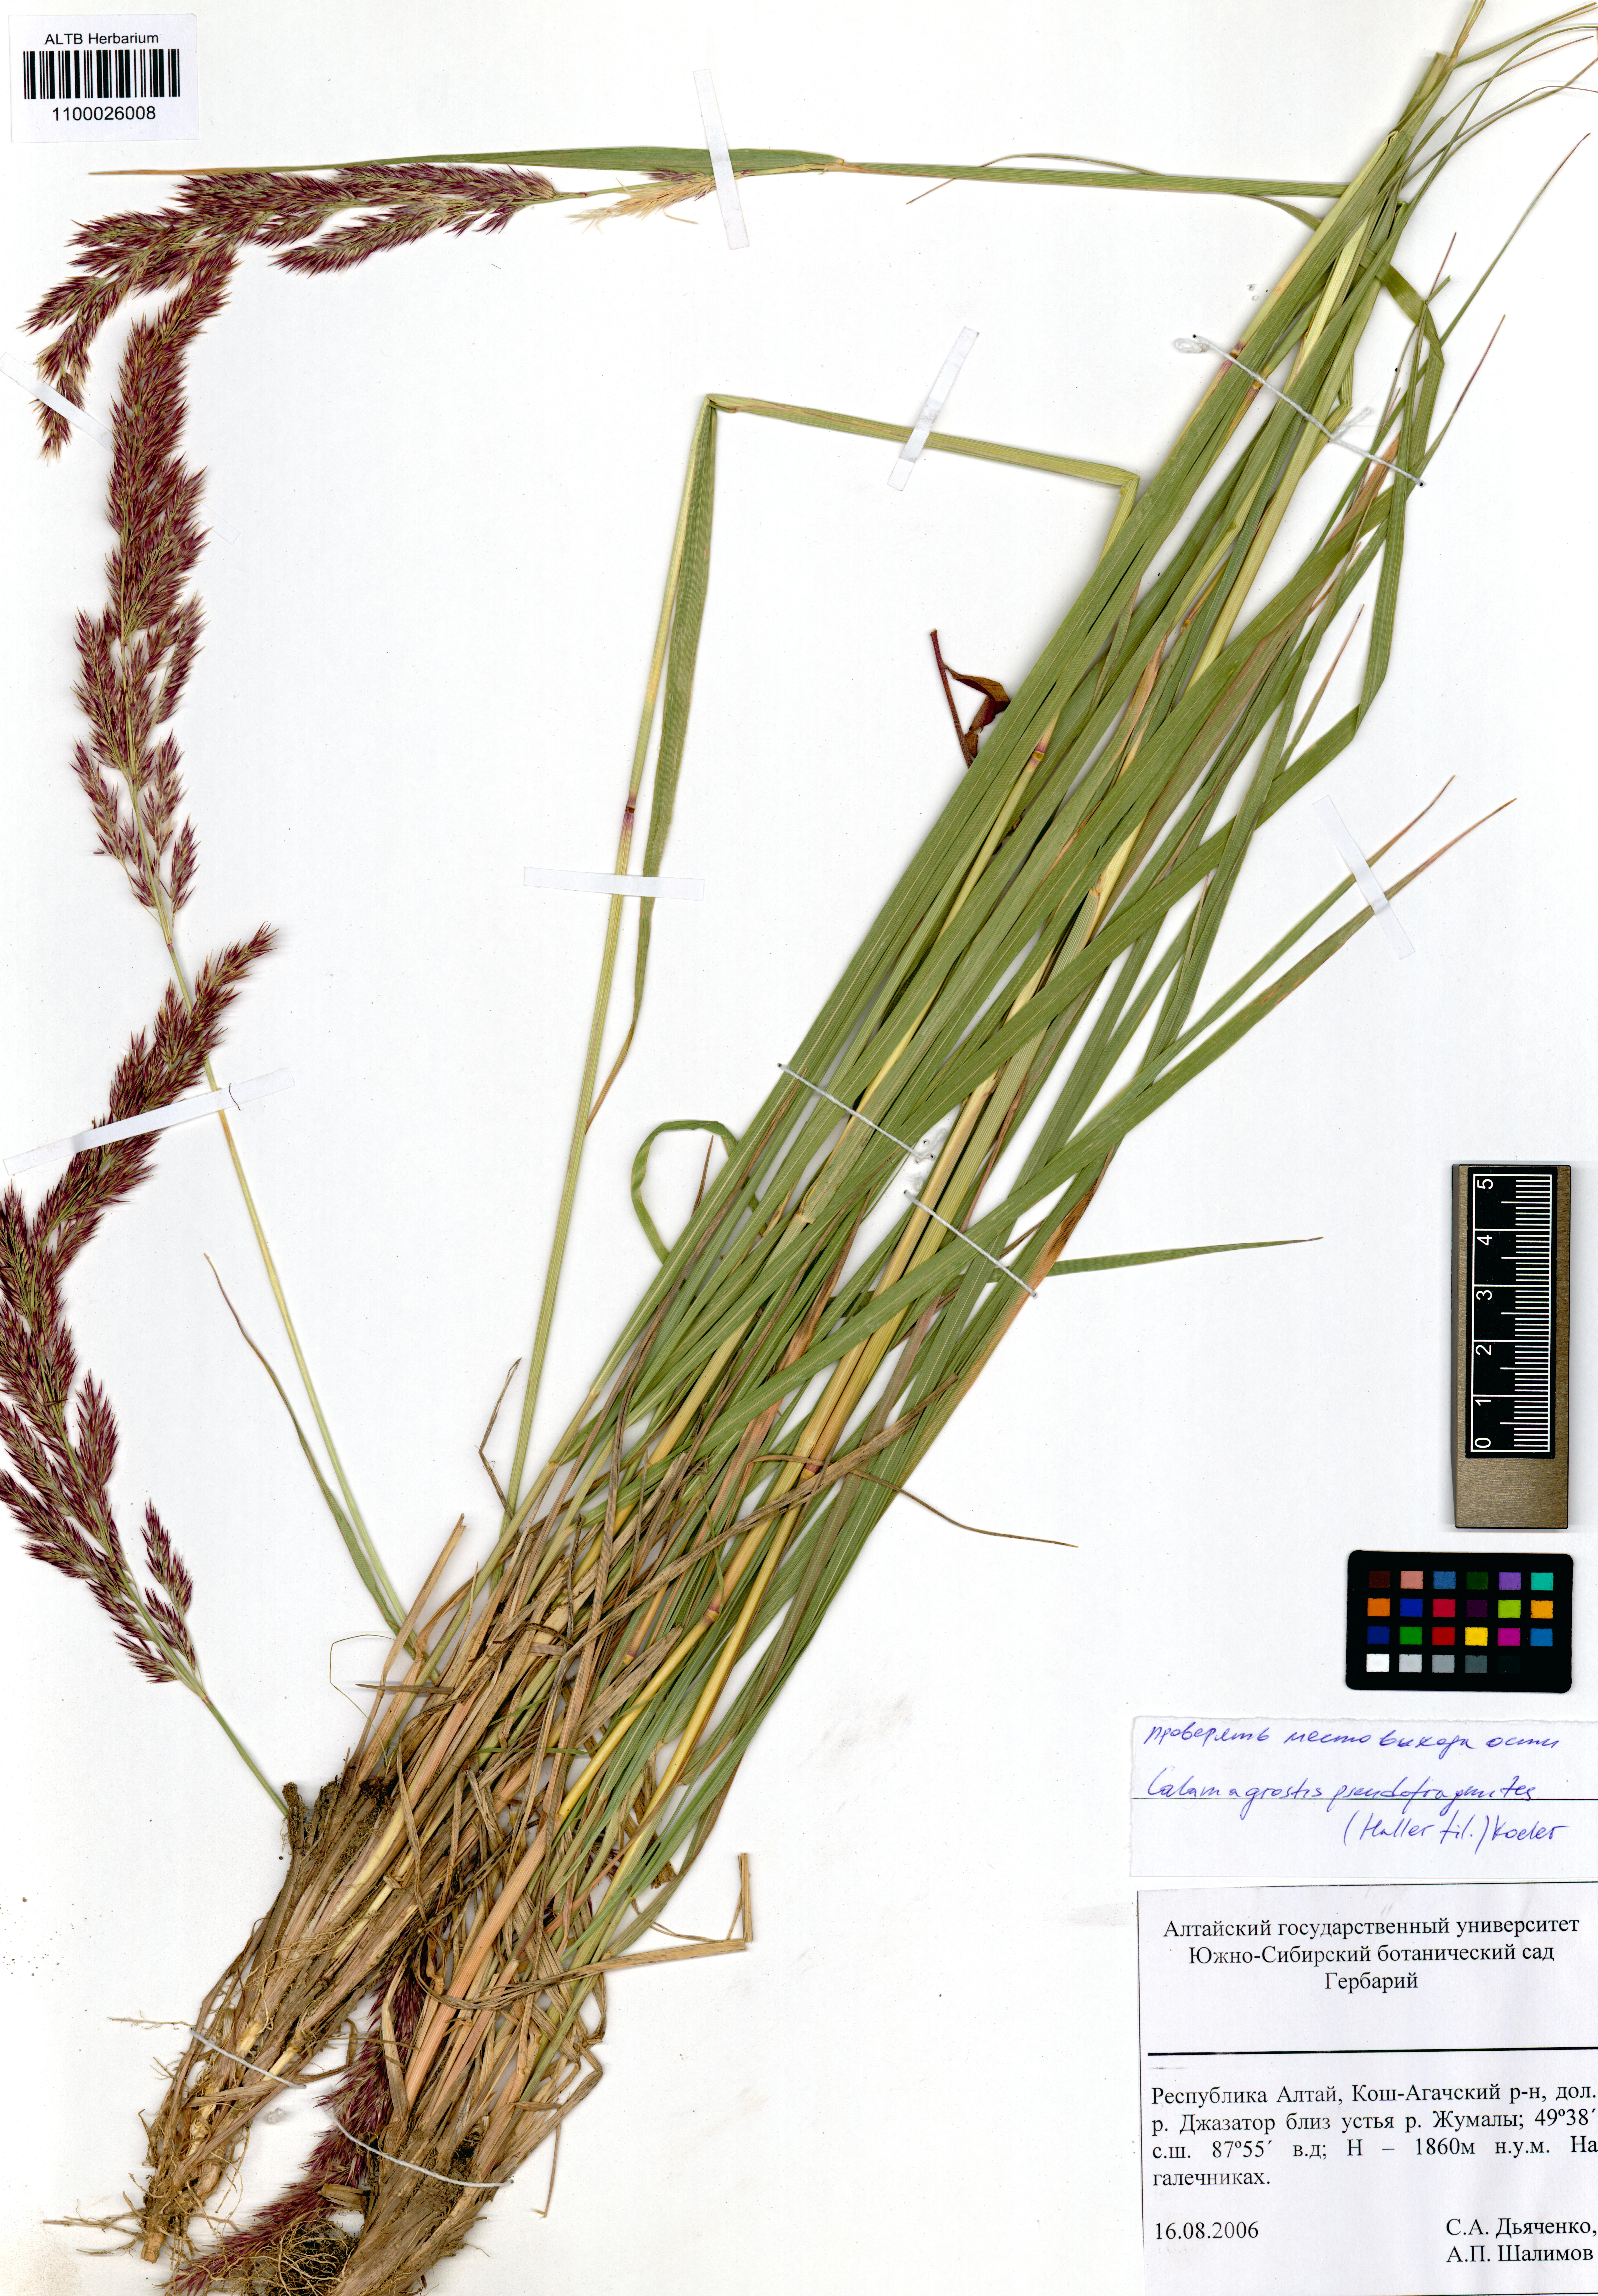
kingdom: Plantae
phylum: Tracheophyta
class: Liliopsida
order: Poales
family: Poaceae
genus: Calamagrostis
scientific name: Calamagrostis pseudophragmites
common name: Coastal small-reed
